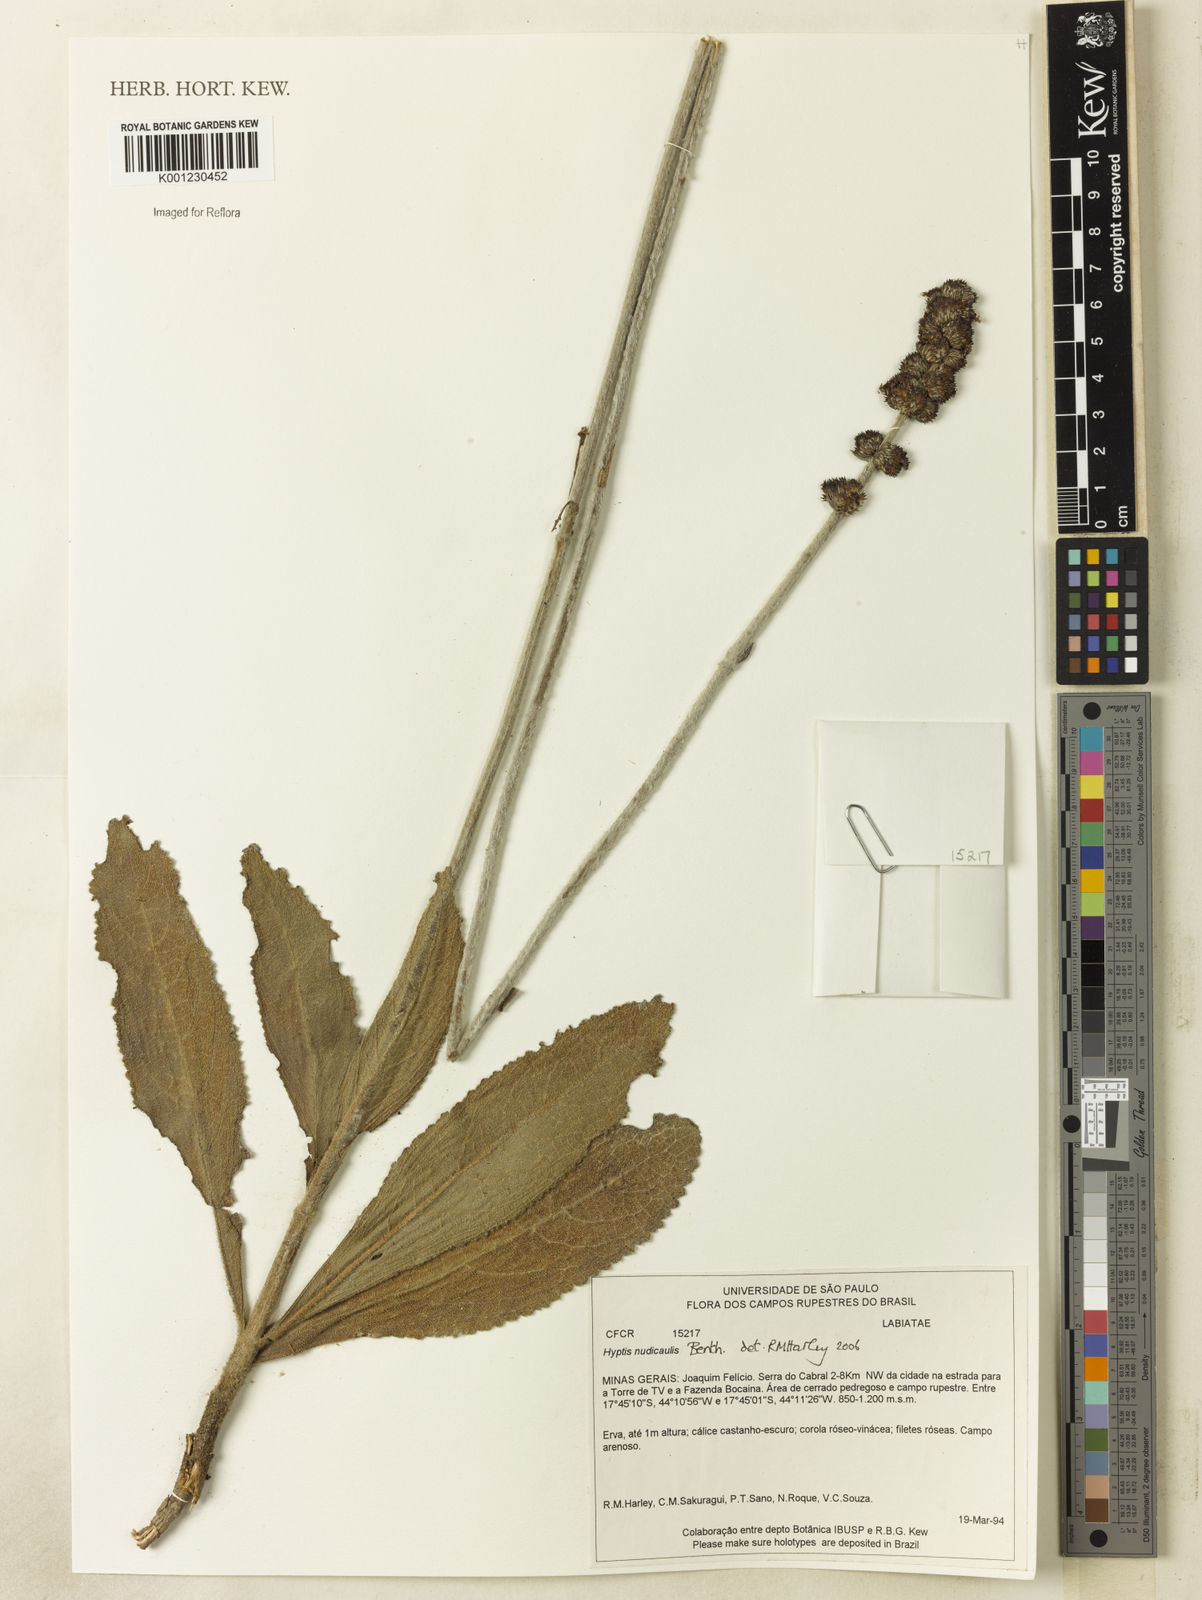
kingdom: Plantae
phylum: Tracheophyta
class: Magnoliopsida
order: Lamiales
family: Lamiaceae
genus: Hyptis
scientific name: Hyptis nudicaulis
